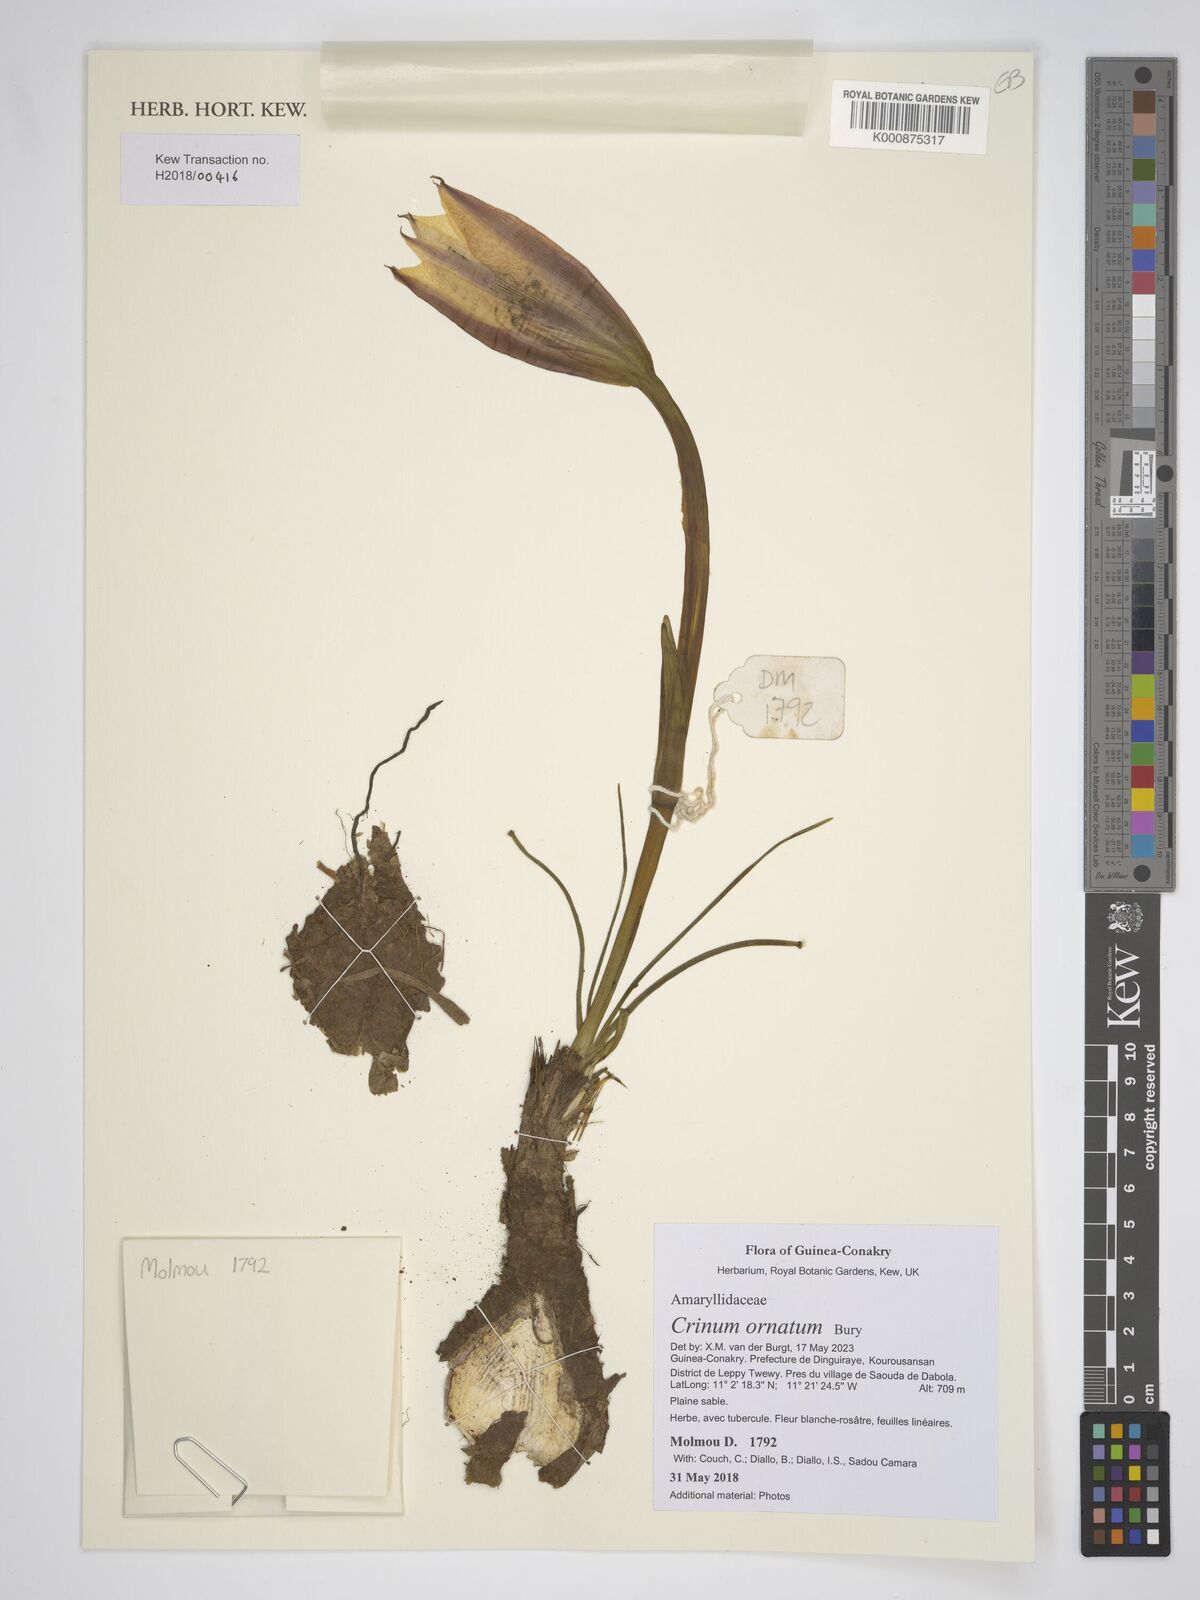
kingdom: Plantae
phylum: Tracheophyta
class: Liliopsida
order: Asparagales
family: Amaryllidaceae
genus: Crinum
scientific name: Crinum ornatum
